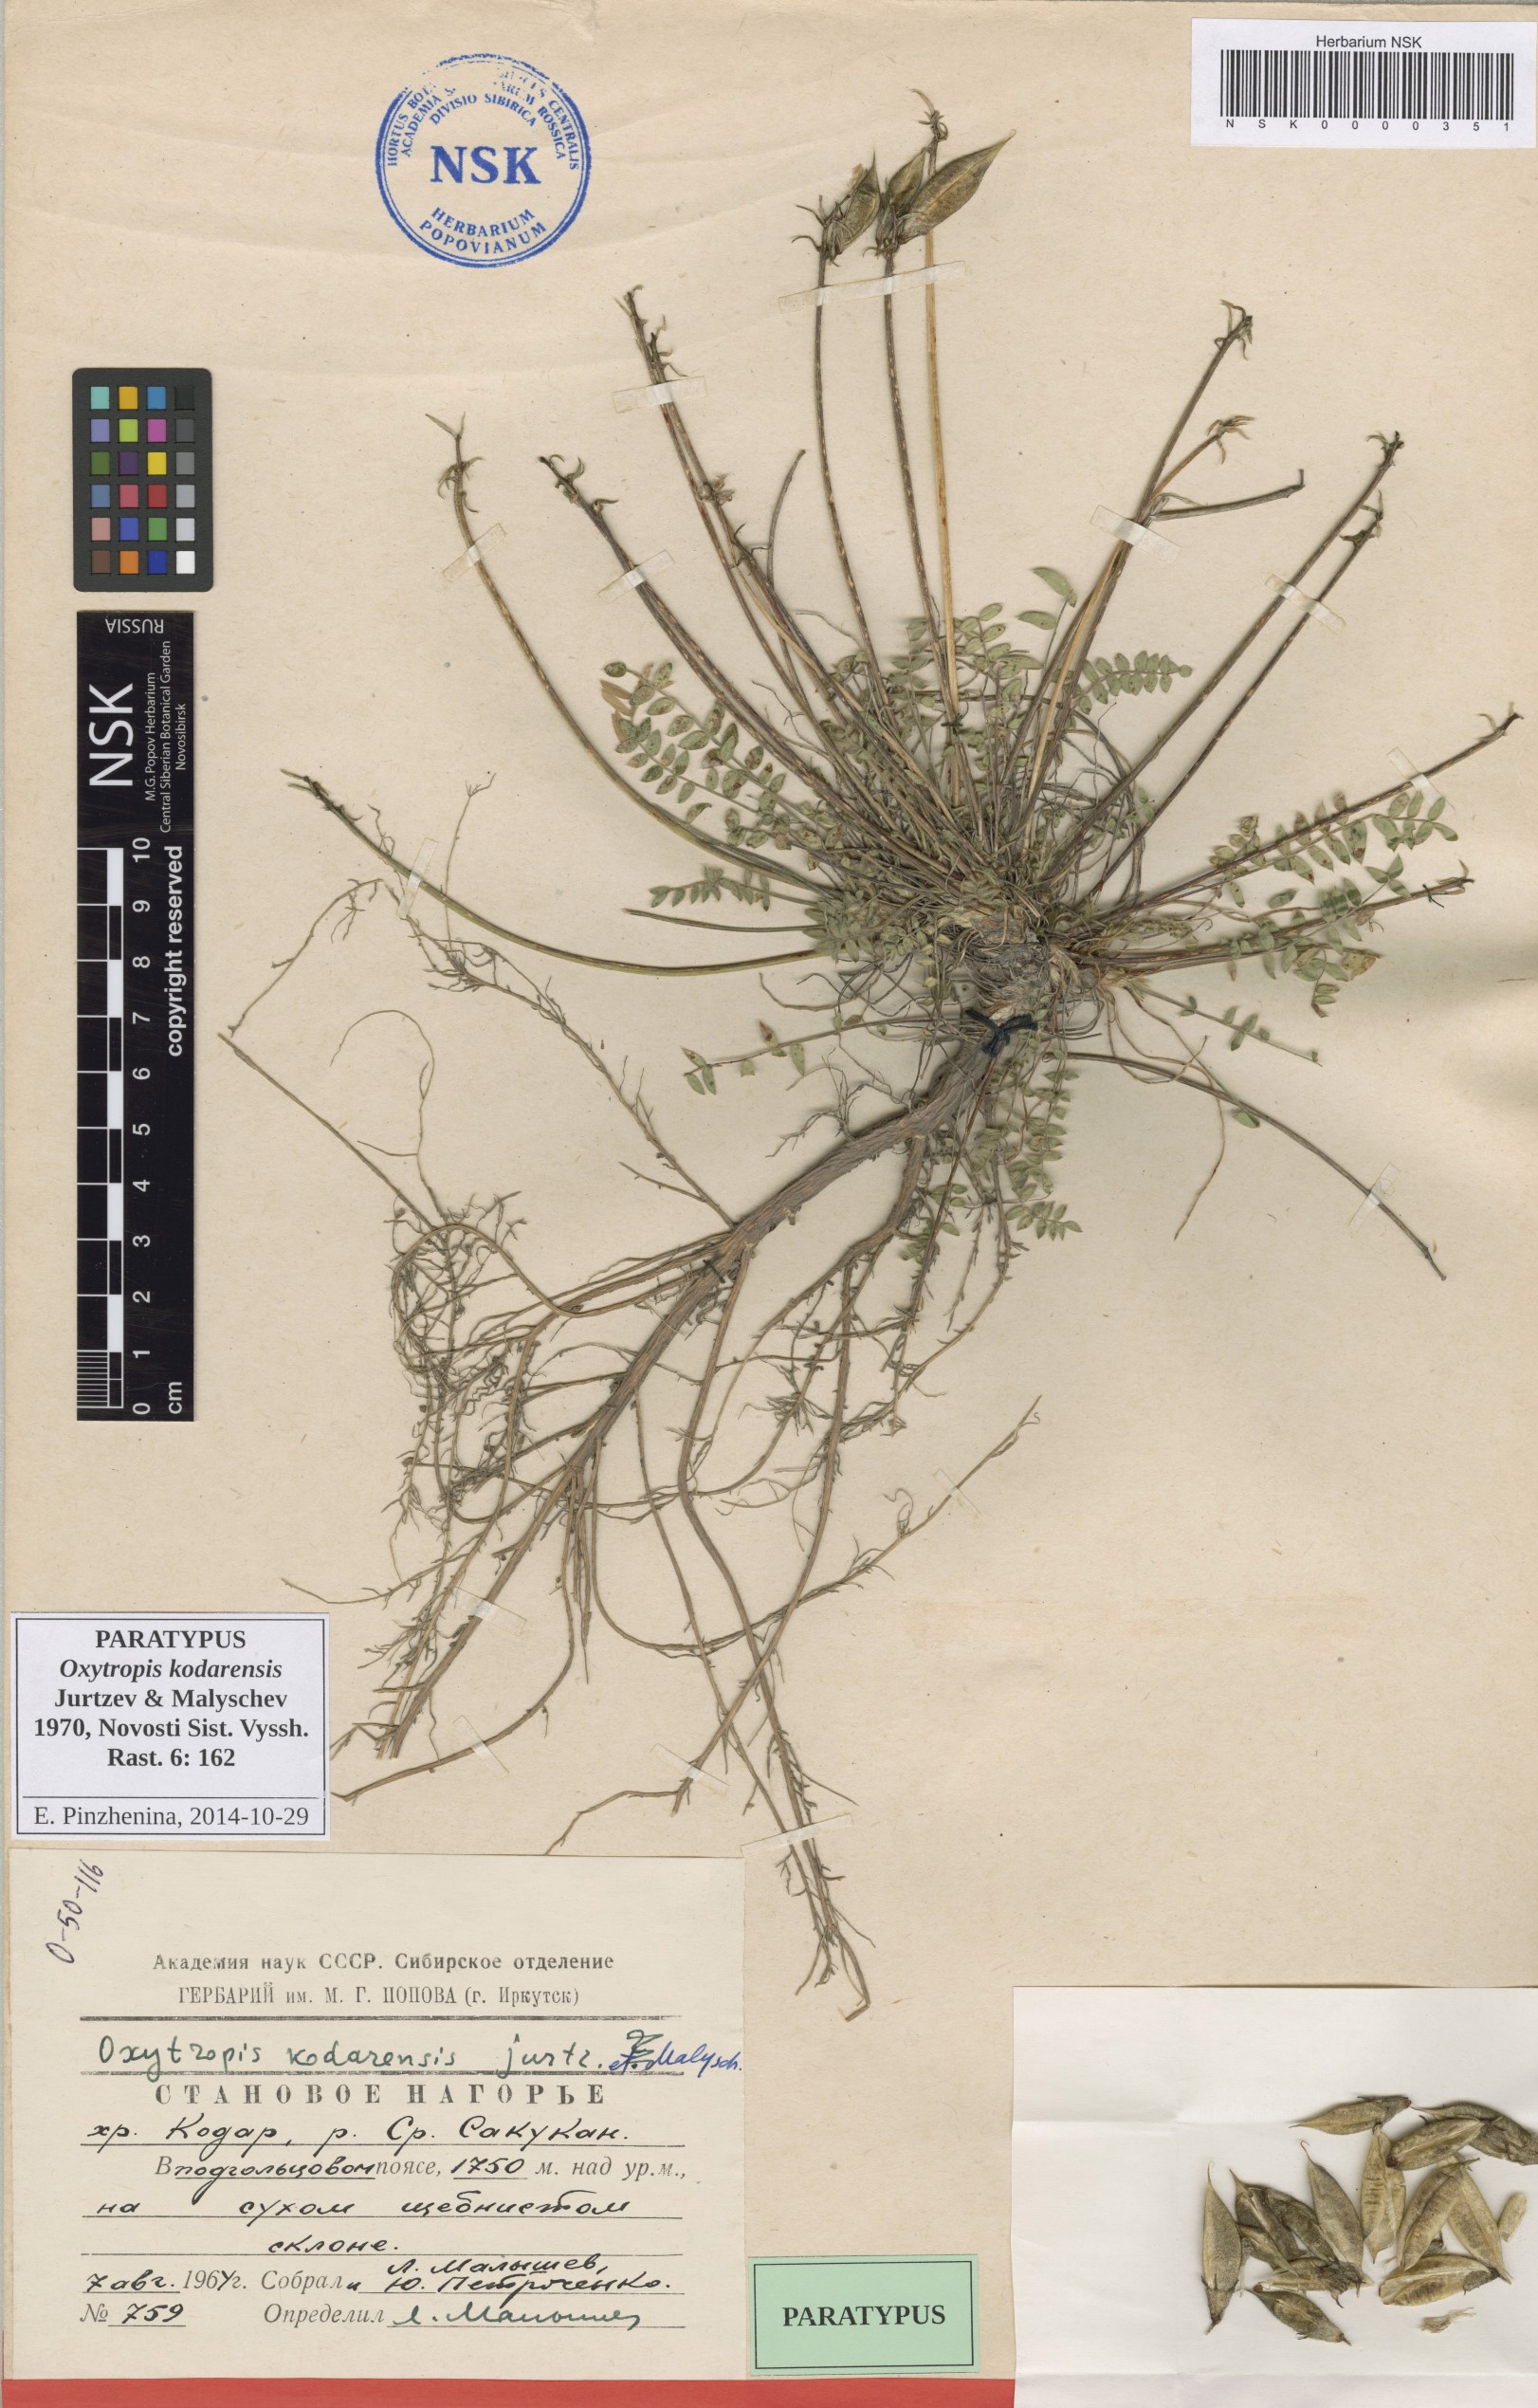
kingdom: Plantae
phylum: Tracheophyta
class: Magnoliopsida
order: Fabales
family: Fabaceae
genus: Oxytropis
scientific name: Oxytropis kodarensis
